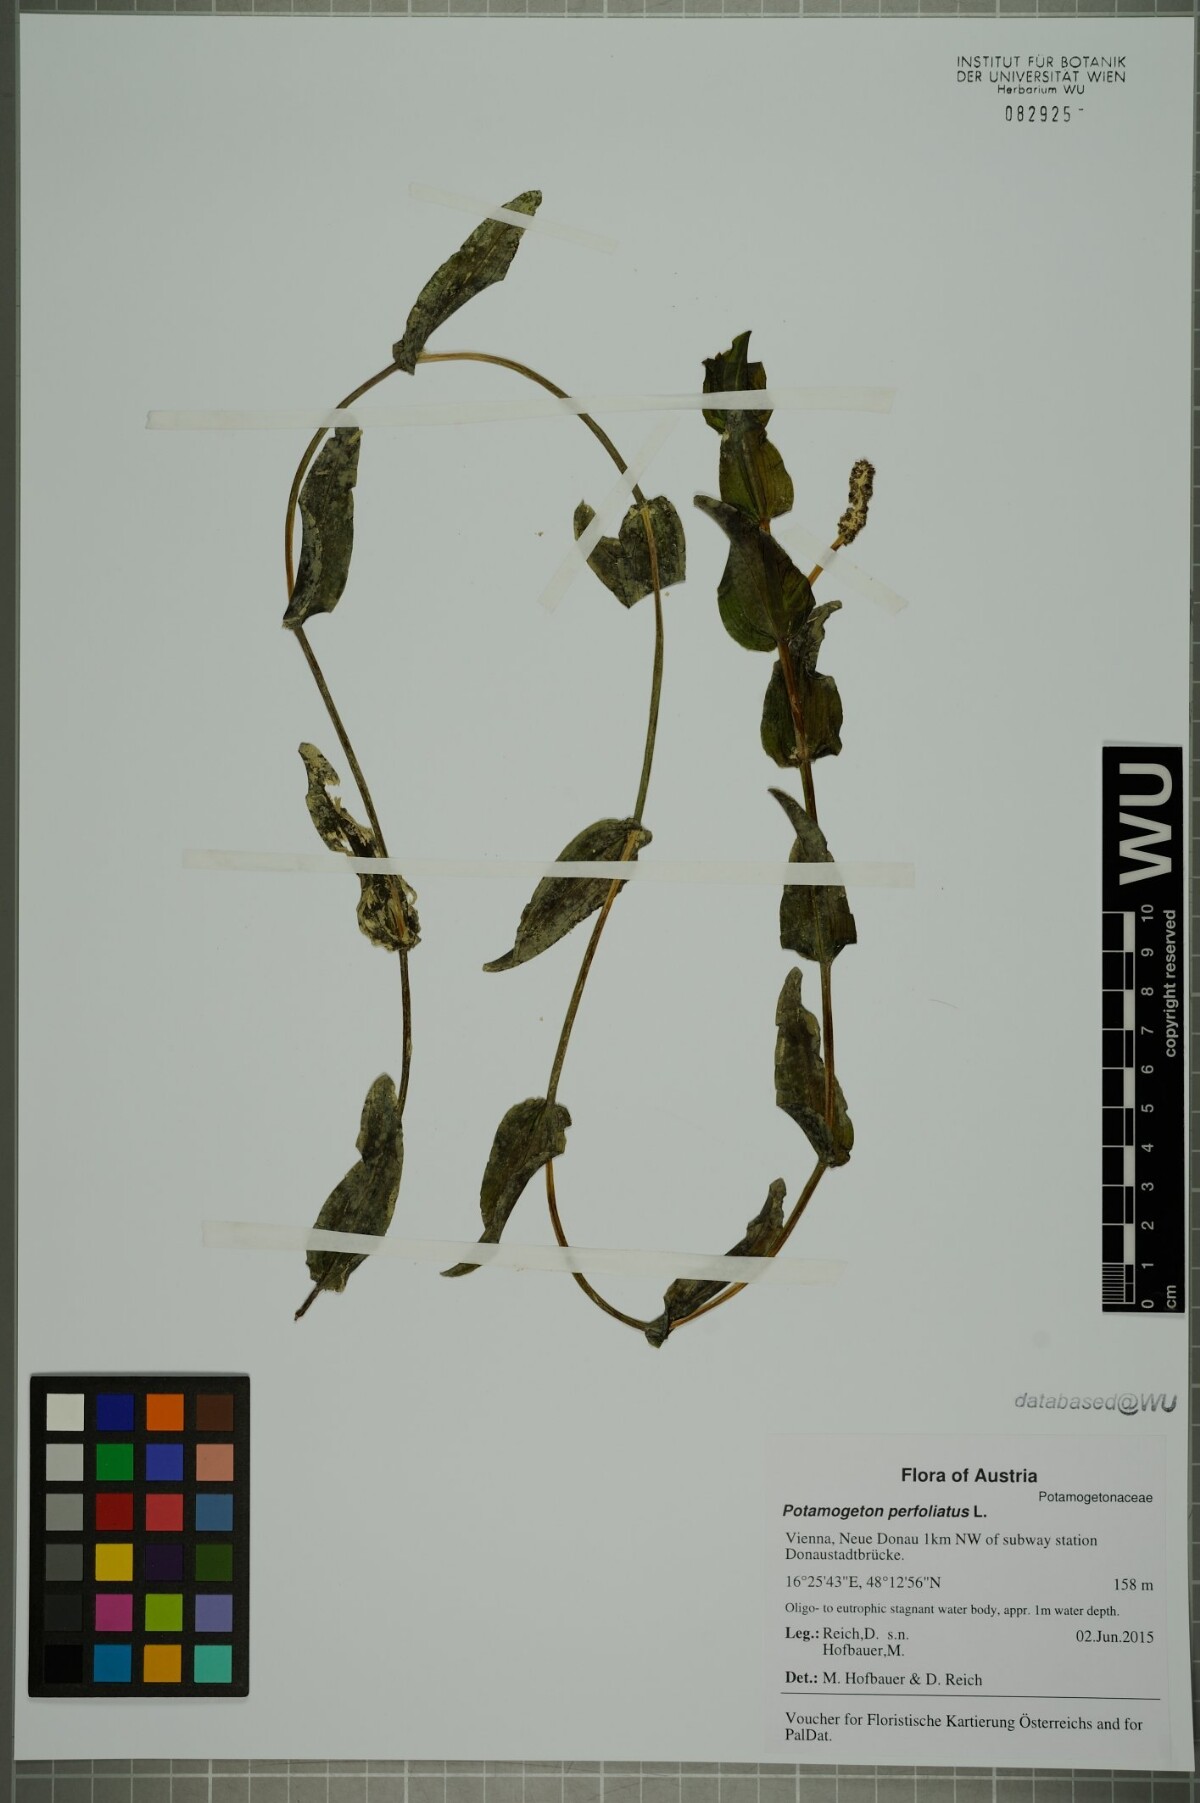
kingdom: Plantae
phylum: Tracheophyta
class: Liliopsida
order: Alismatales
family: Potamogetonaceae
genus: Potamogeton
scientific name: Potamogeton perfoliatus
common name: Perfoliate pondweed
